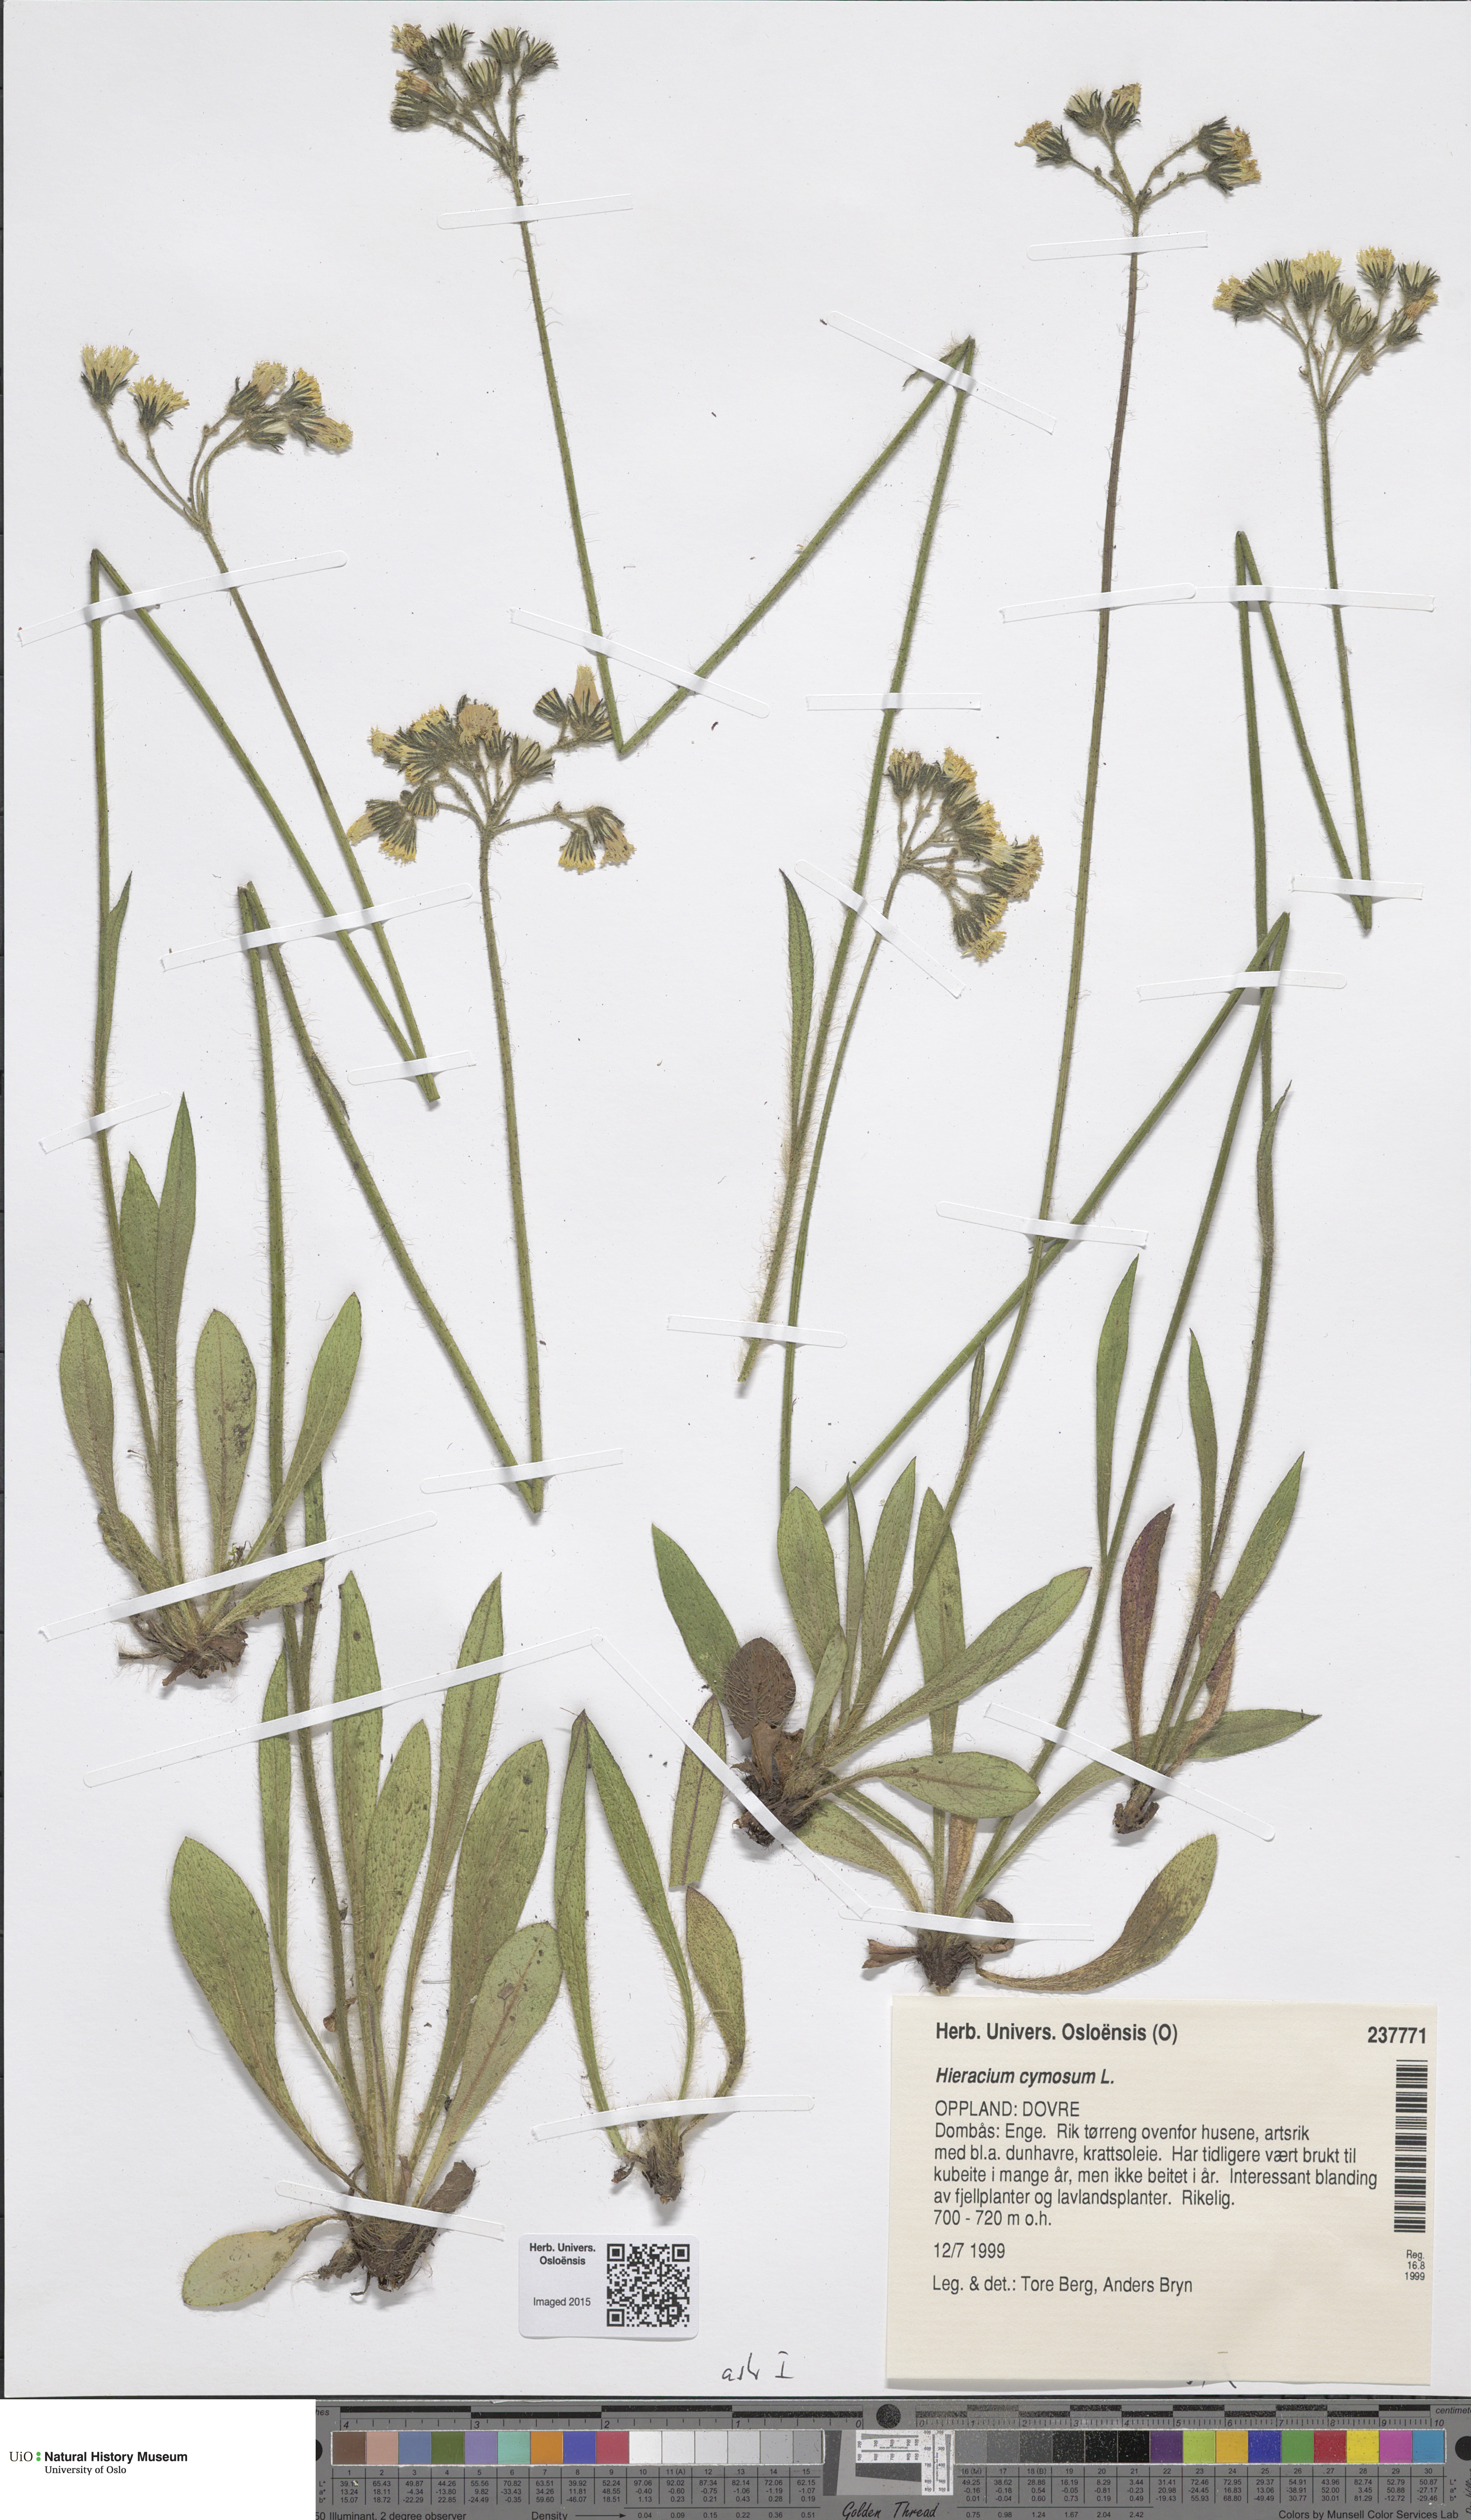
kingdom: Plantae
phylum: Tracheophyta
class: Magnoliopsida
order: Asterales
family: Asteraceae
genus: Pilosella
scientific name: Pilosella cymosa
